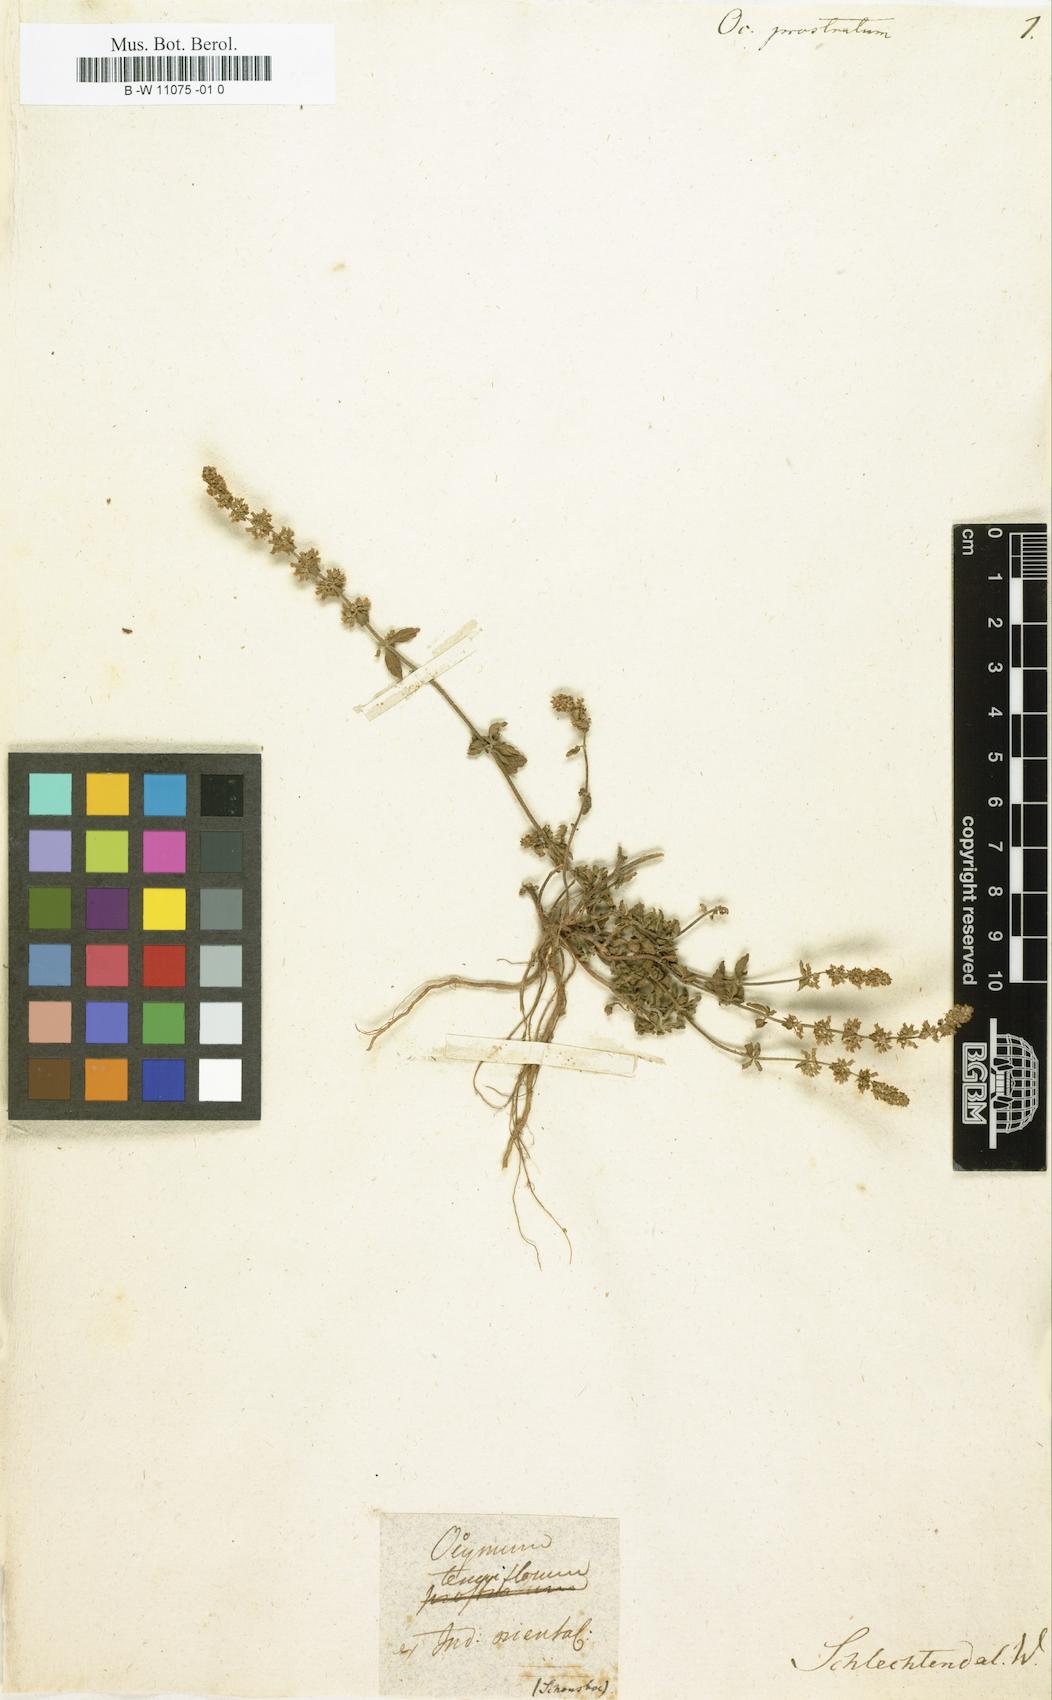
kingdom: Plantae
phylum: Tracheophyta
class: Magnoliopsida
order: Lamiales
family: Lamiaceae
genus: Platostoma
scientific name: Platostoma menthoides
